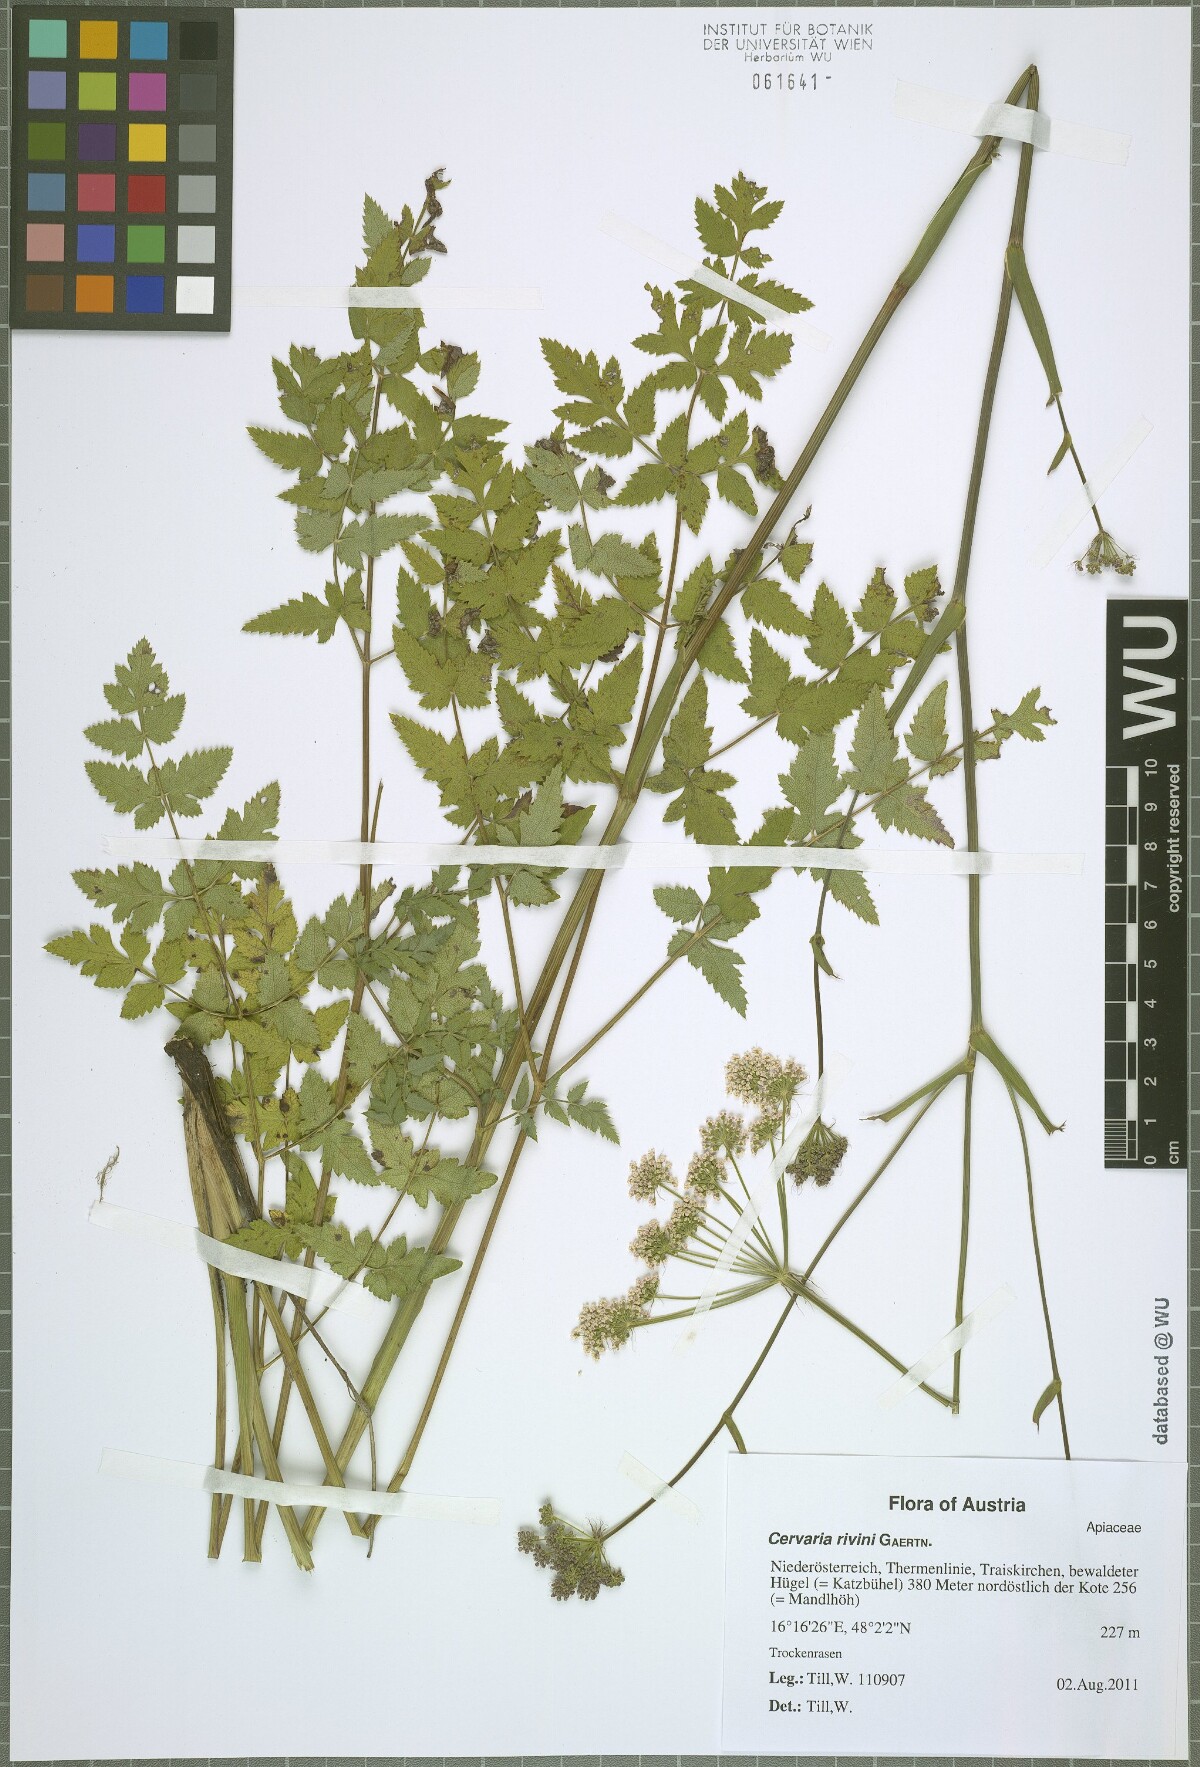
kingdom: Plantae
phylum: Tracheophyta
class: Magnoliopsida
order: Apiales
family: Apiaceae
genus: Cervaria
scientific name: Cervaria rivini
